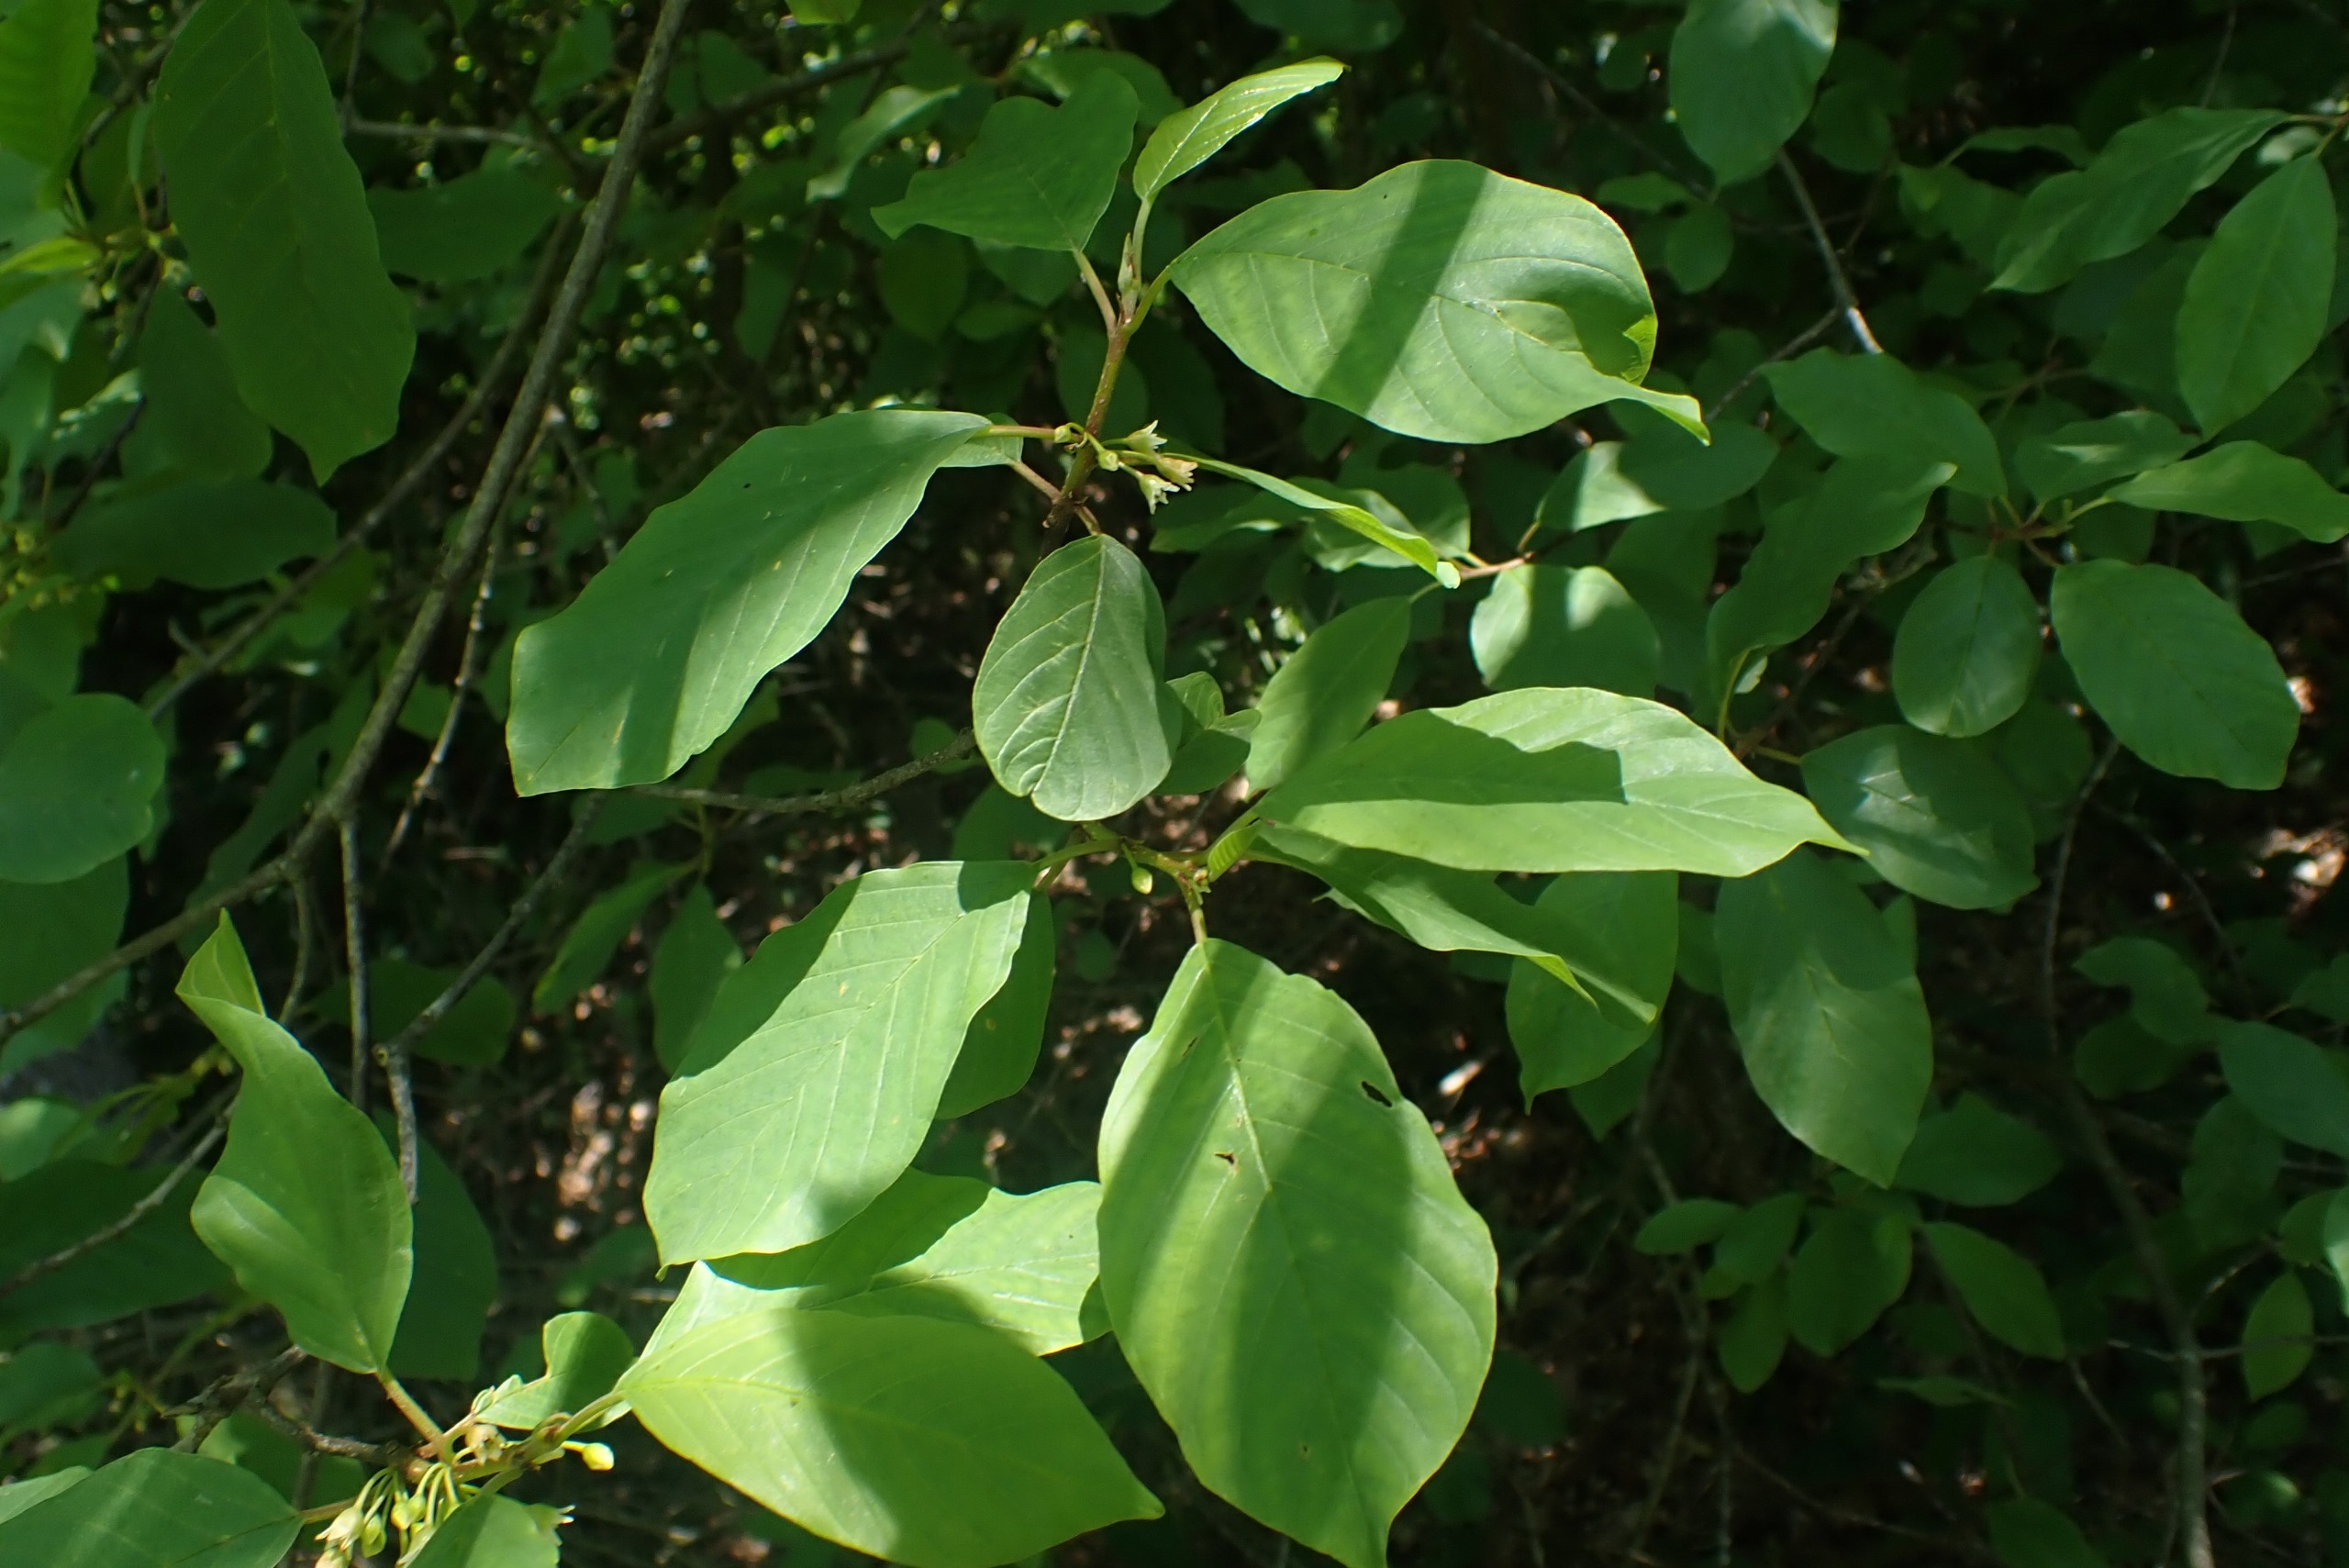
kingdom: Plantae
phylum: Tracheophyta
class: Magnoliopsida
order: Rosales
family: Rhamnaceae
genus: Frangula
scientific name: Frangula alnus
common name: Tørst
